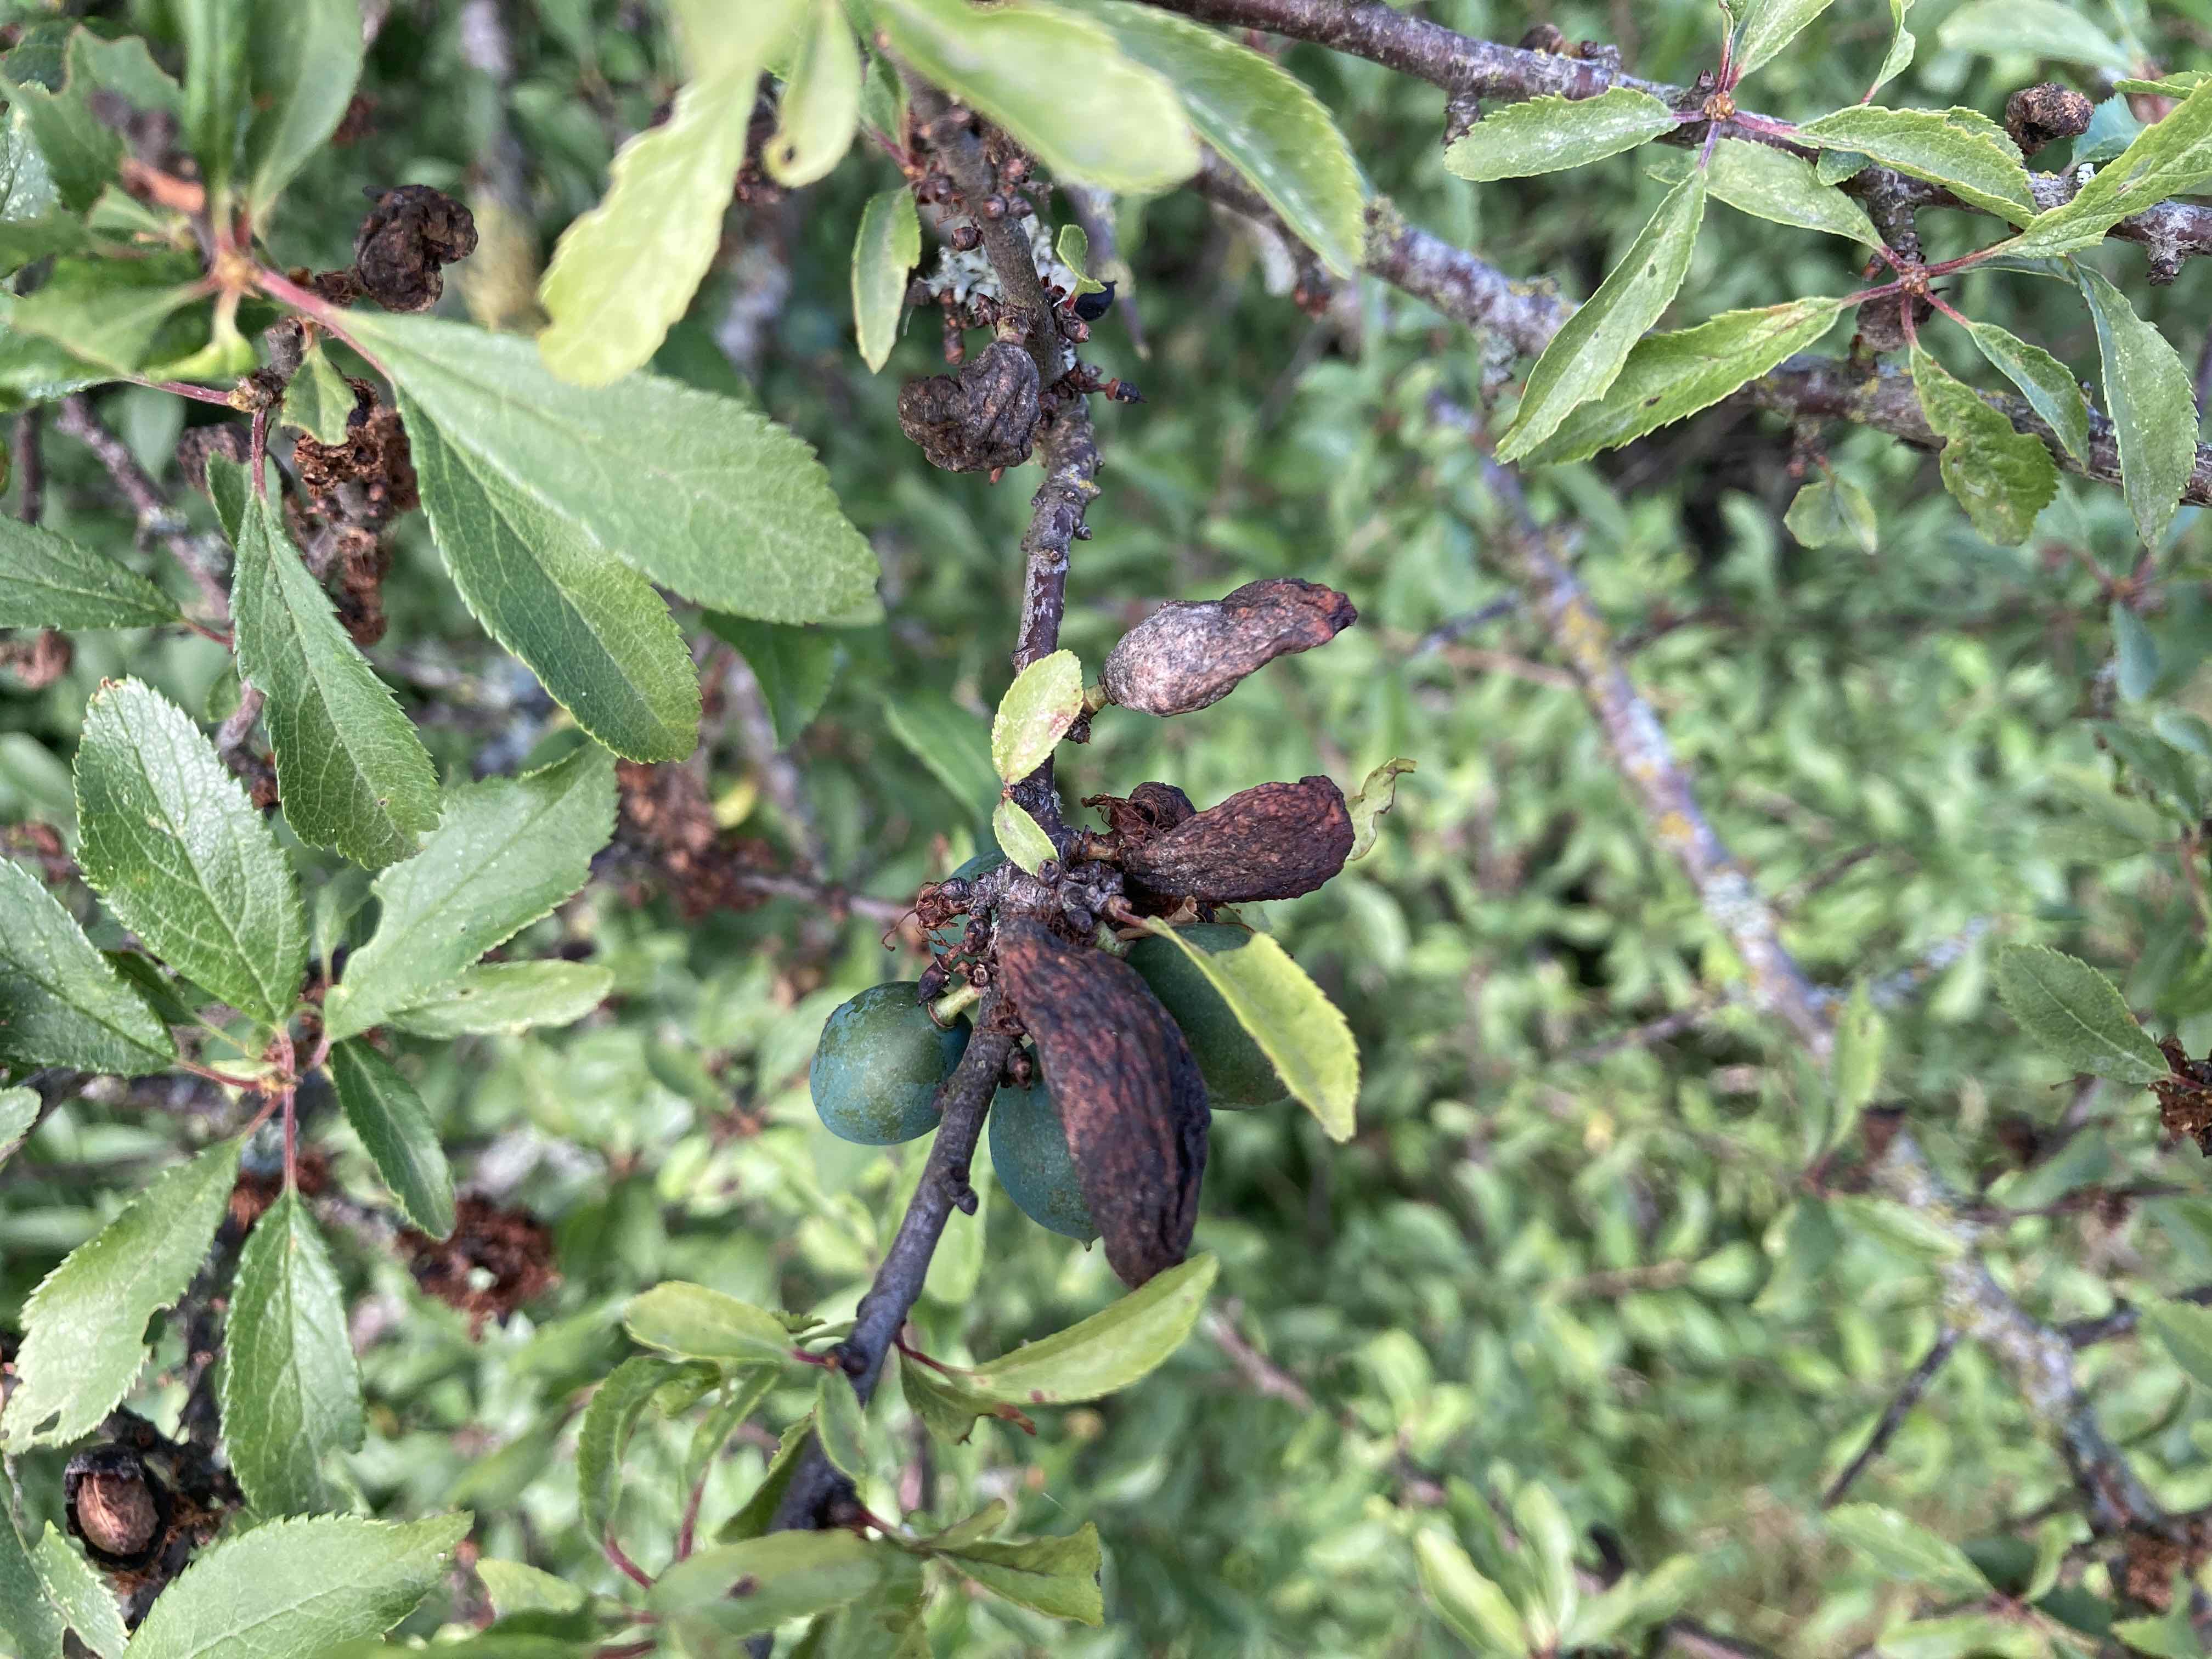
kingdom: Fungi
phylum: Ascomycota
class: Taphrinomycetes
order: Taphrinales
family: Taphrinaceae
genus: Taphrina
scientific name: Taphrina pruni
